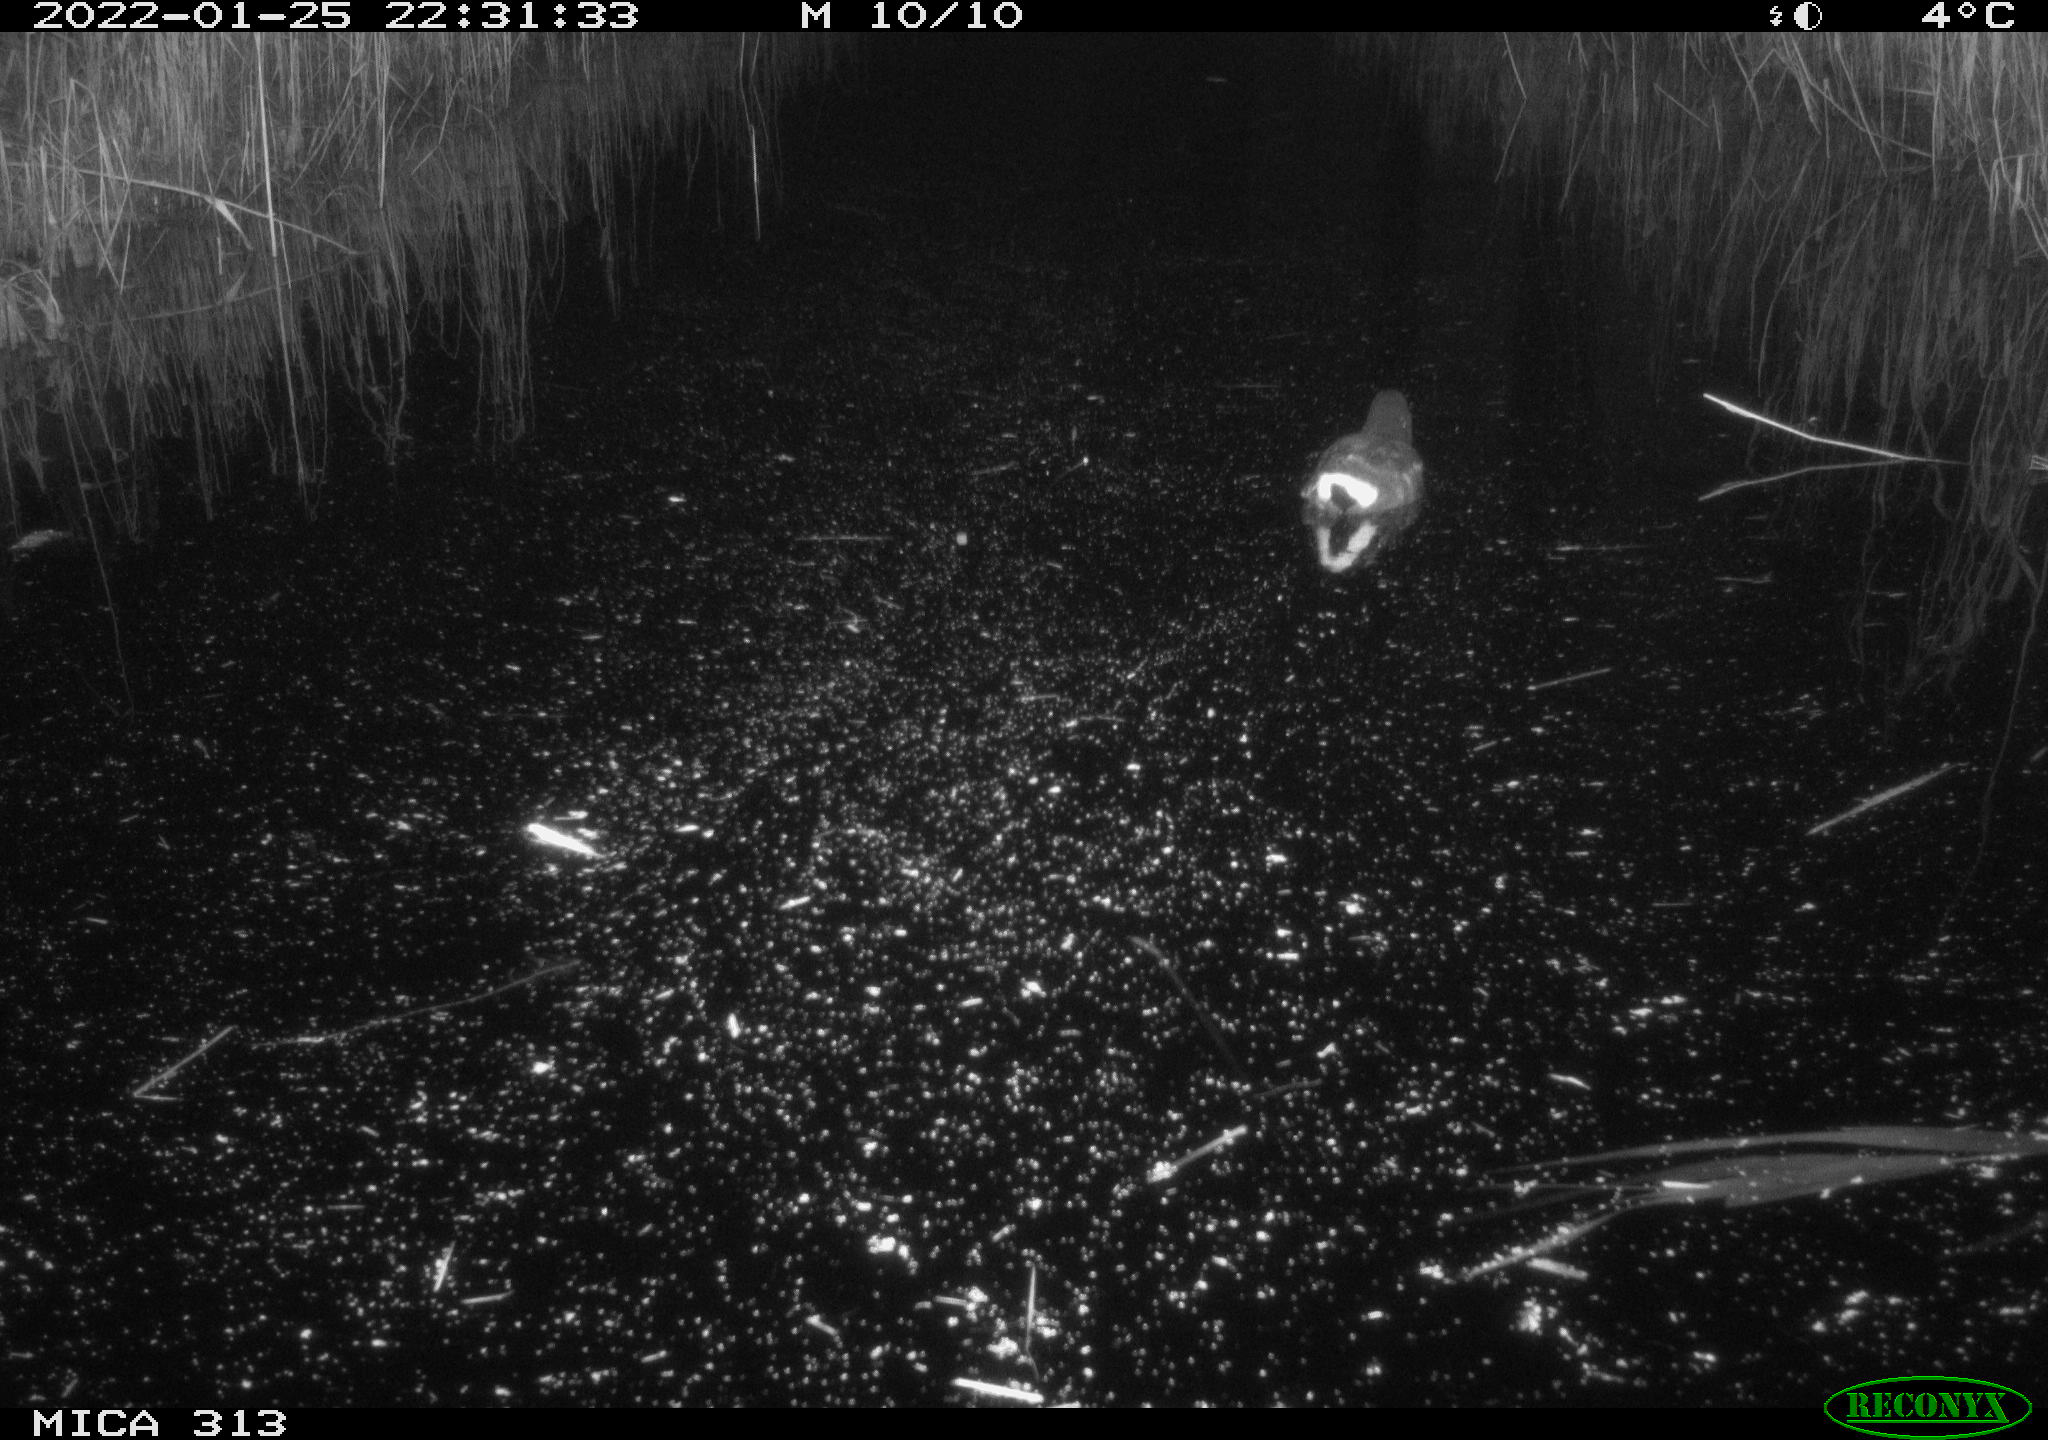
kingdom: Animalia
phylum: Chordata
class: Aves
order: Anseriformes
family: Anatidae
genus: Anas
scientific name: Anas
